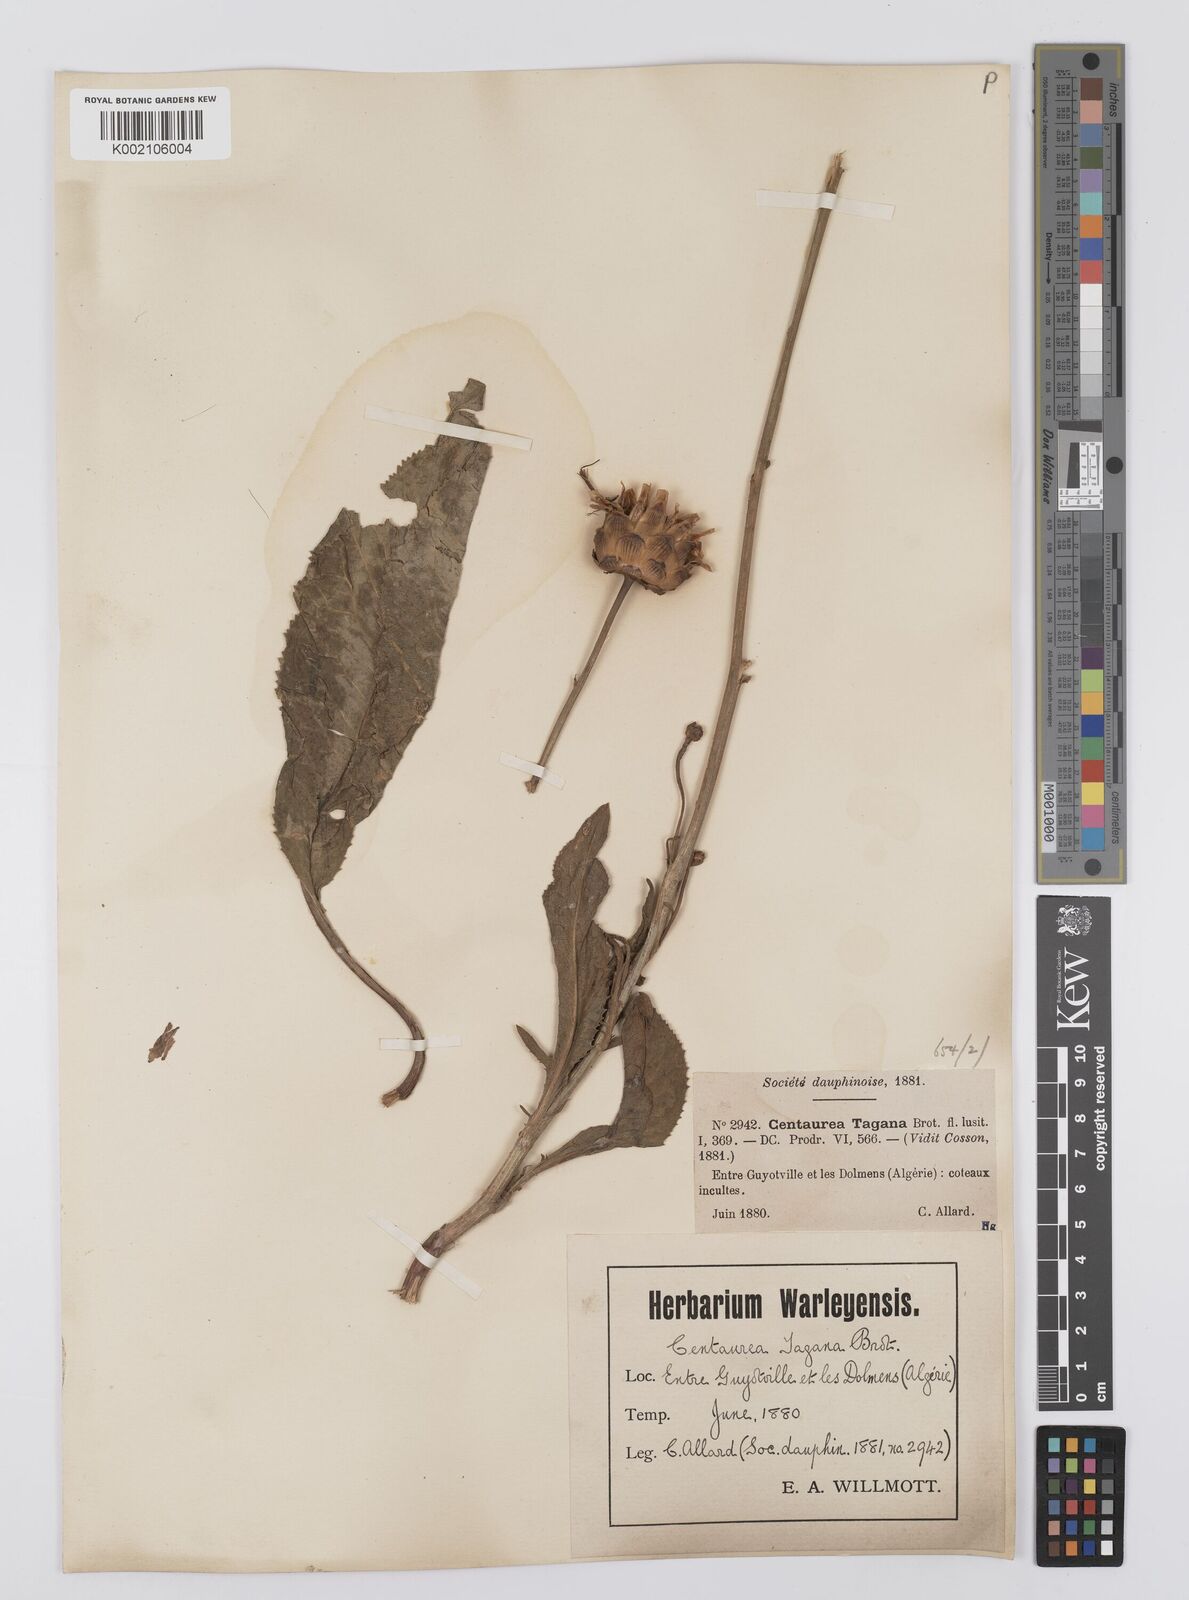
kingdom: Plantae
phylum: Tracheophyta
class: Magnoliopsida
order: Asterales
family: Asteraceae
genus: Rhaponticoides
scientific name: Rhaponticoides africana
